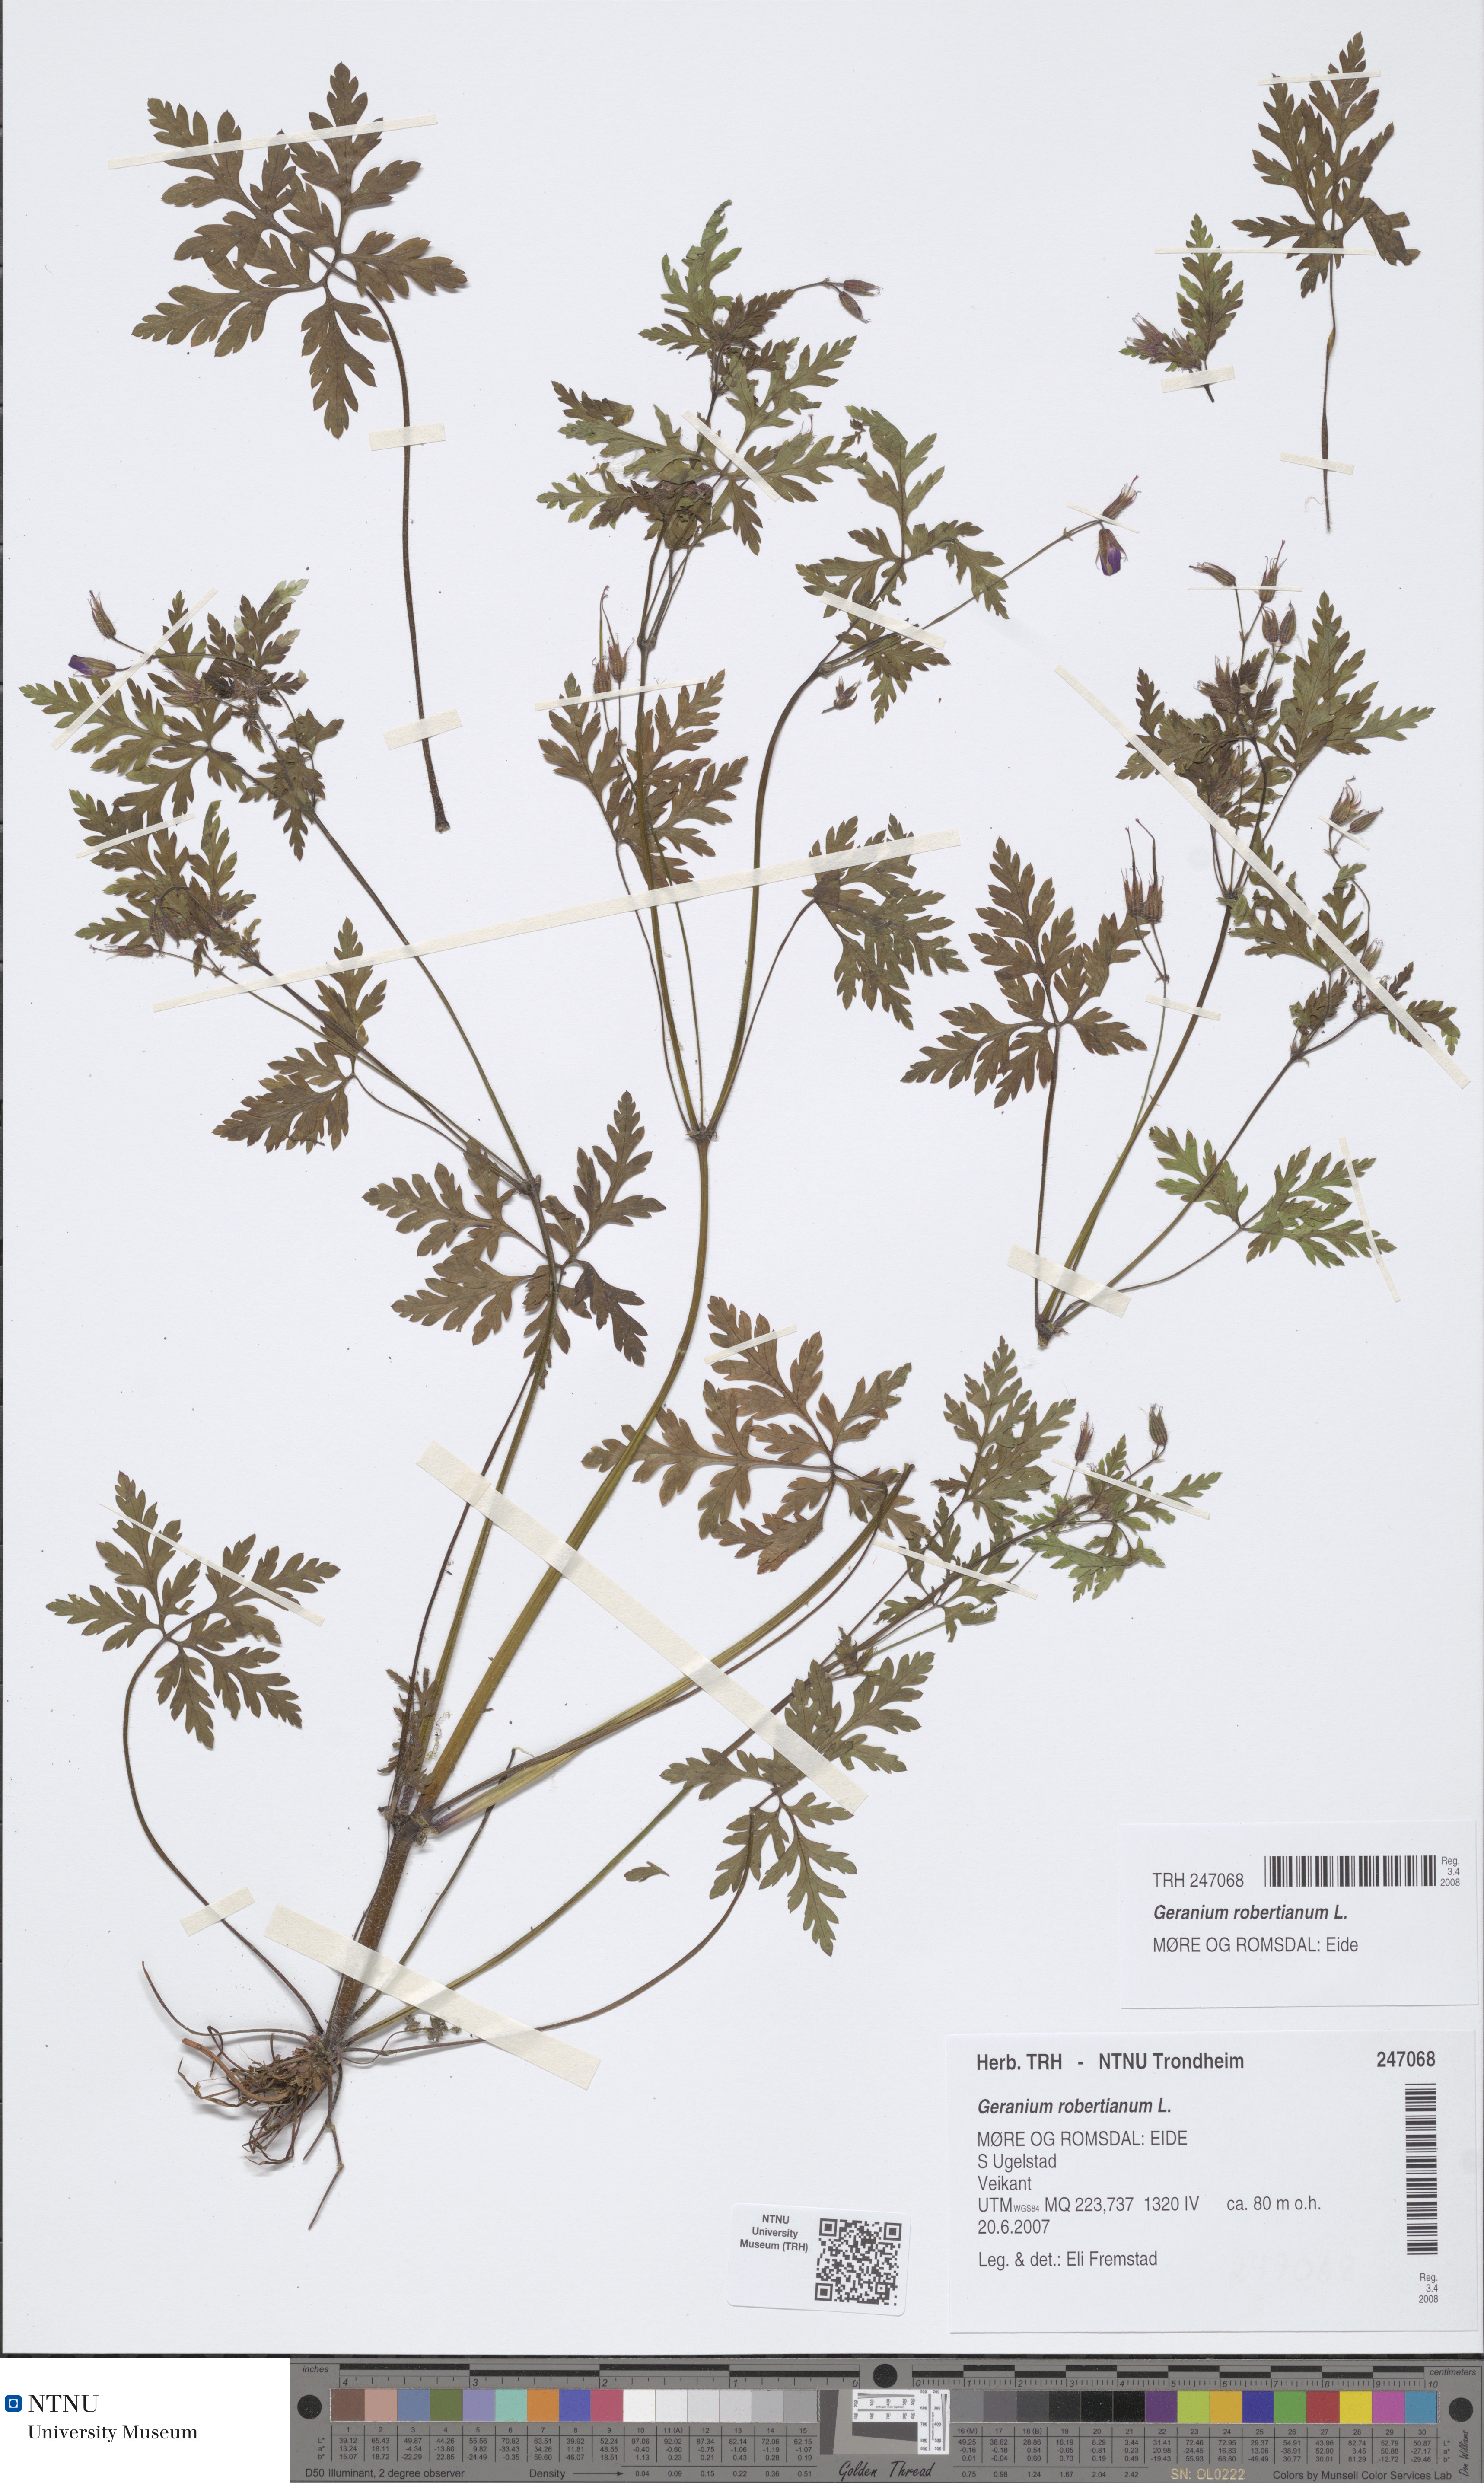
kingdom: Plantae
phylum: Tracheophyta
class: Magnoliopsida
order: Geraniales
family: Geraniaceae
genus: Geranium
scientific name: Geranium robertianum
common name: Herb-robert
